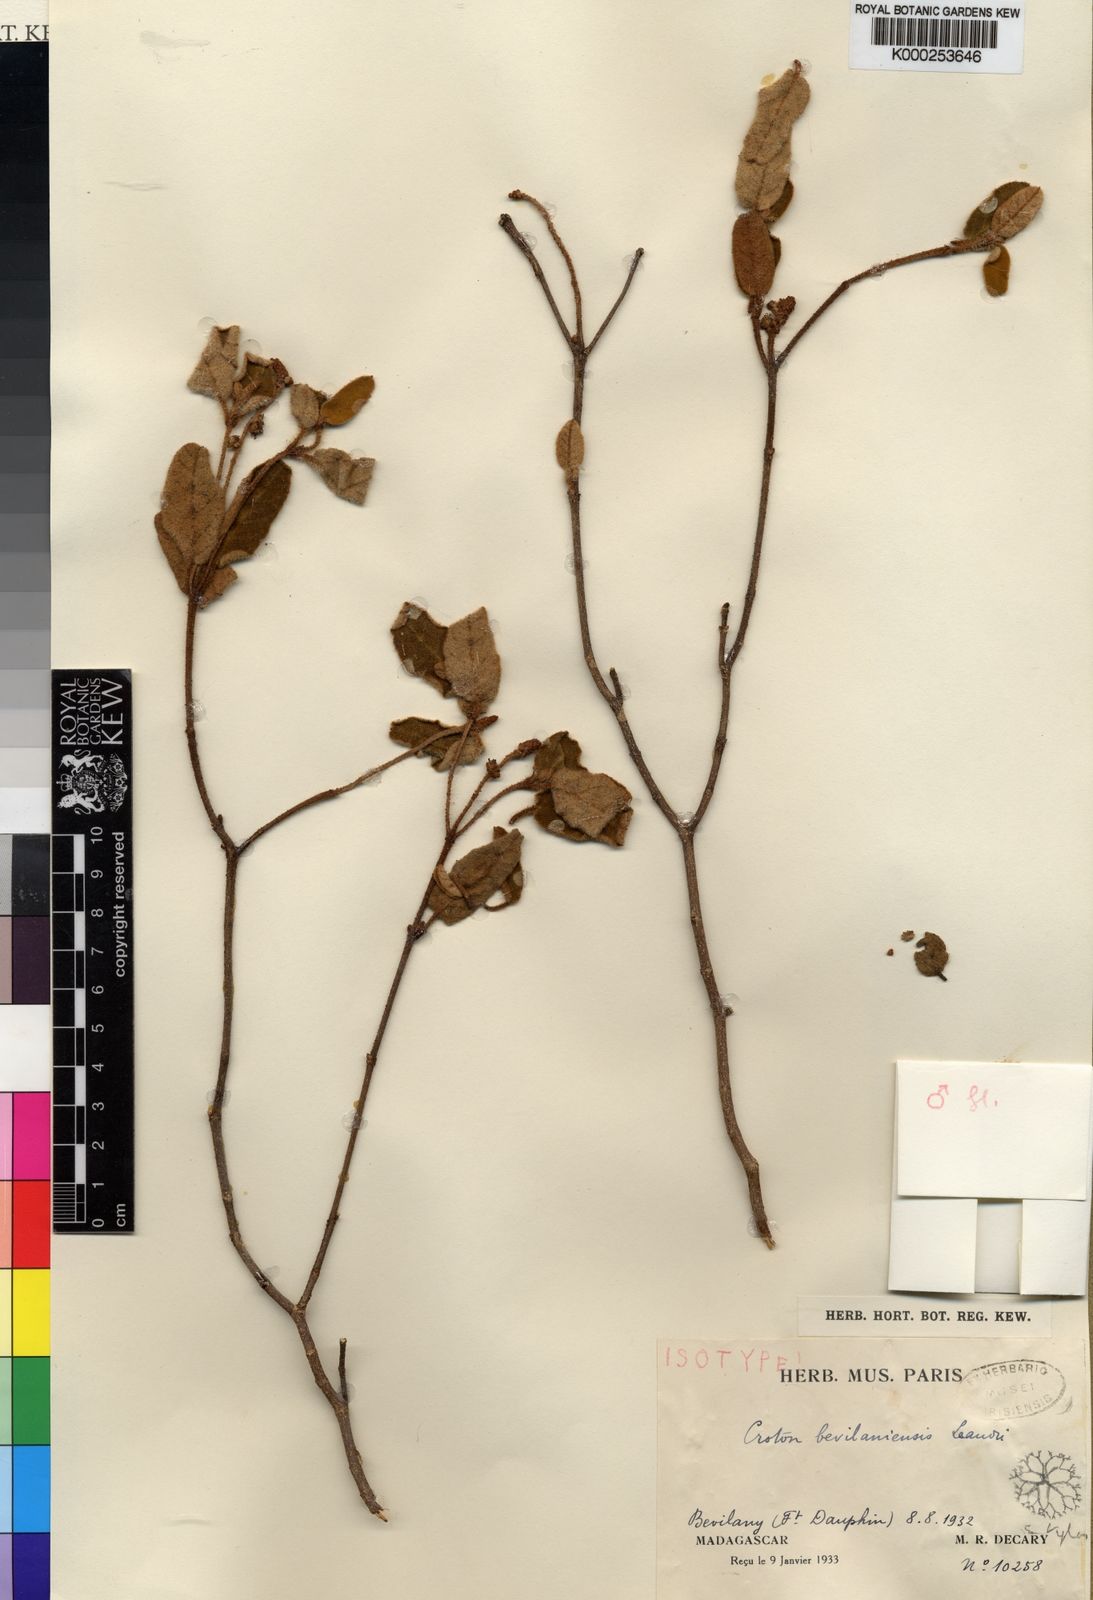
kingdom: Plantae
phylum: Tracheophyta
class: Magnoliopsida
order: Malpighiales
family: Euphorbiaceae
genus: Croton
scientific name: Croton decaryi
